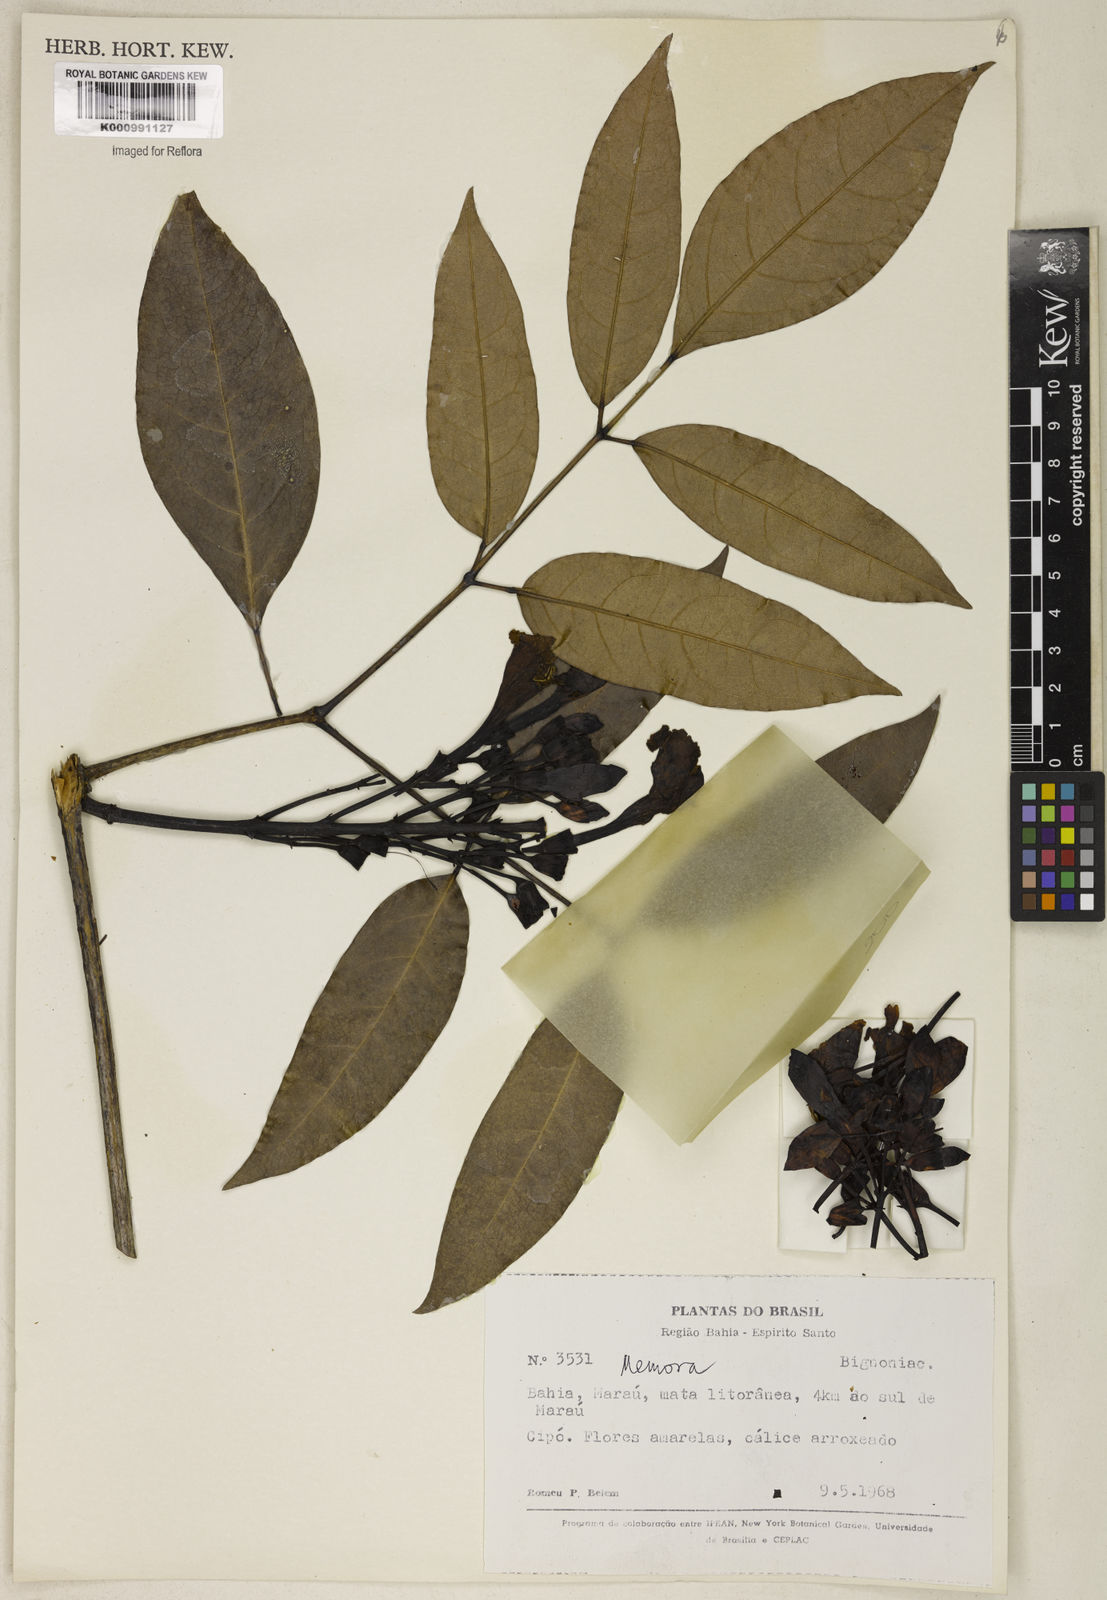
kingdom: Plantae
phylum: Tracheophyta
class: Magnoliopsida
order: Lamiales
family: Bignoniaceae
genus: Adenocalymma
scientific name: Adenocalymma validum
